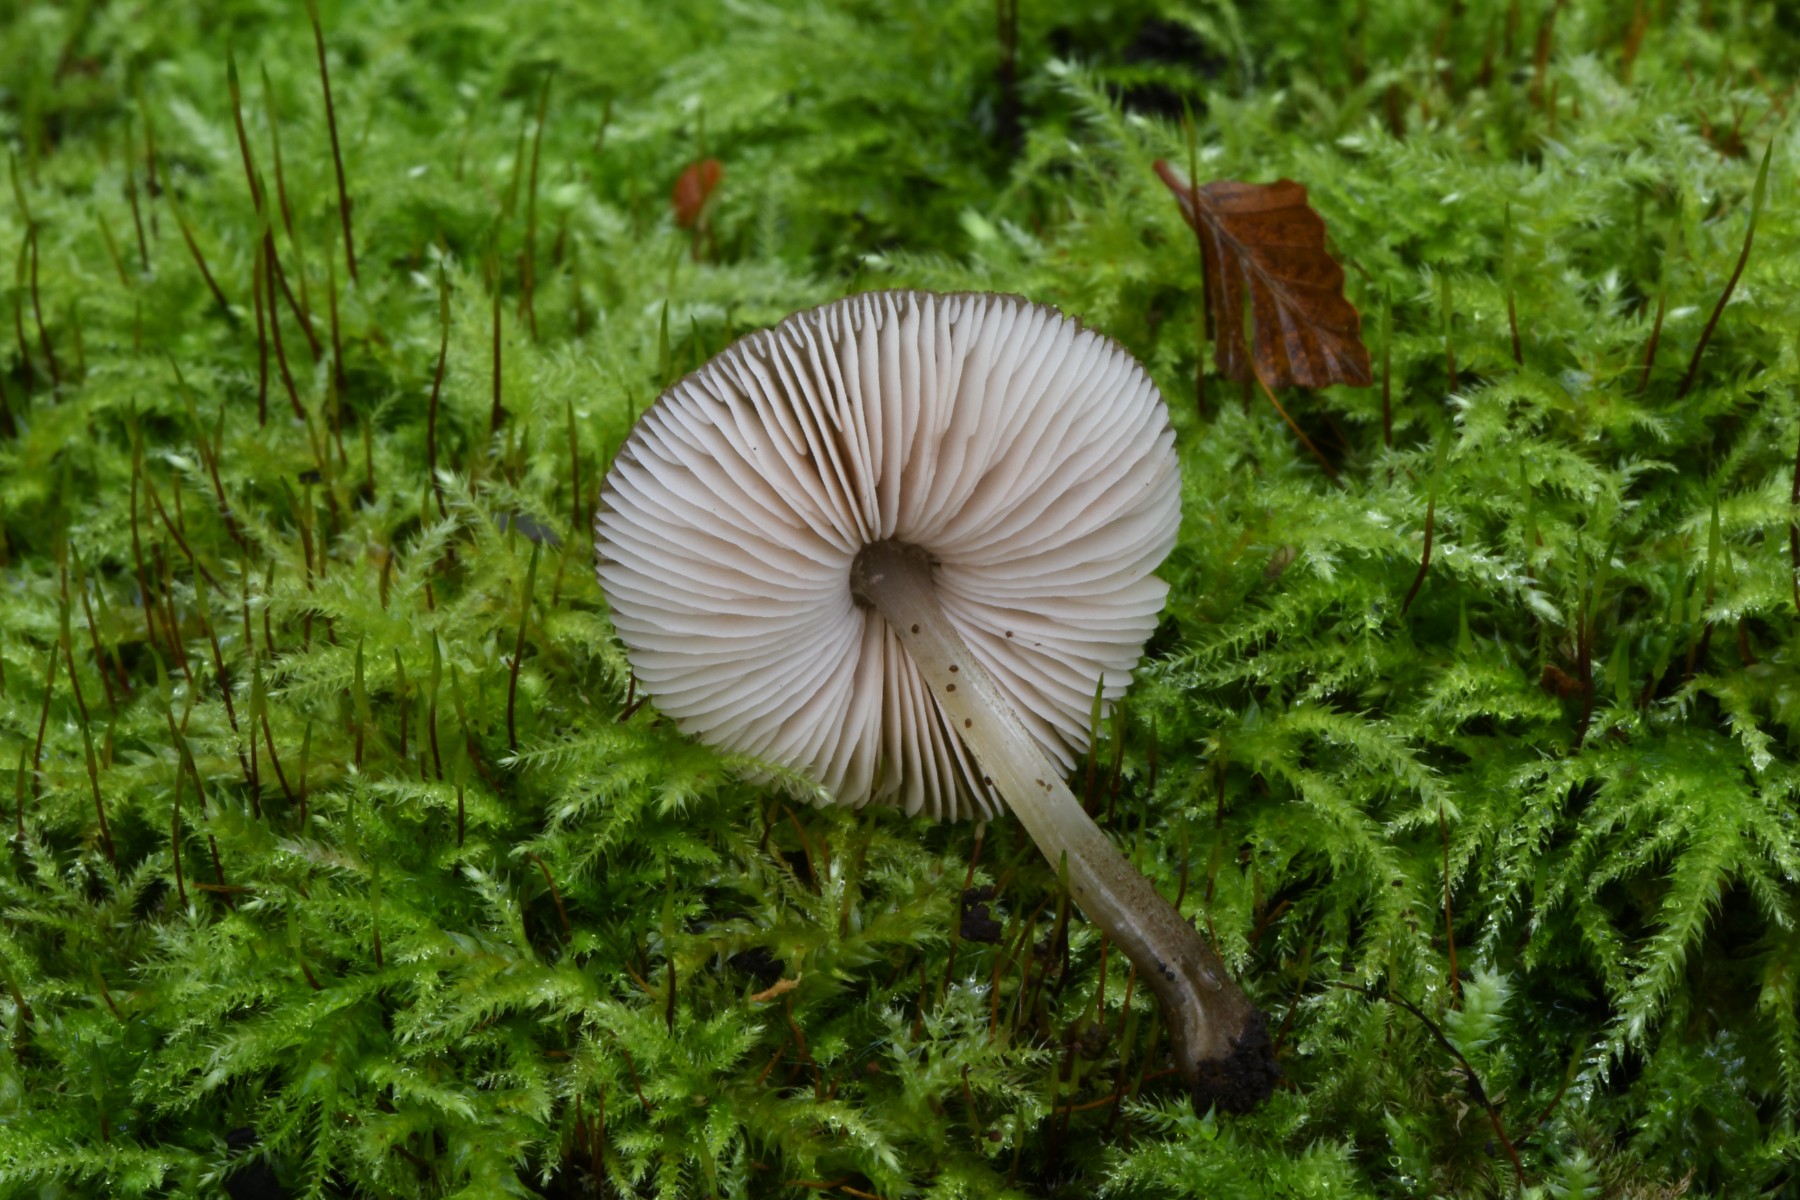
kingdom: Fungi
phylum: Basidiomycota
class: Agaricomycetes
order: Agaricales
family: Pluteaceae
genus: Pluteus
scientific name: Pluteus inflatus
